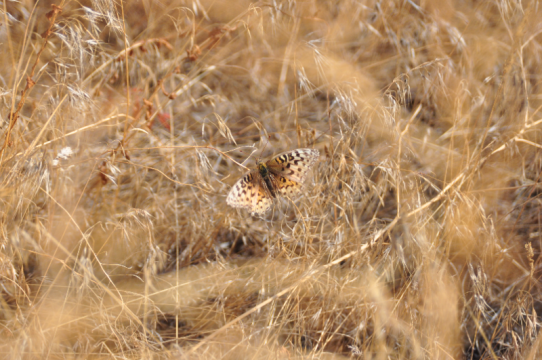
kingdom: Animalia
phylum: Arthropoda
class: Insecta
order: Lepidoptera
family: Nymphalidae
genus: Speyeria
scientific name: Speyeria coronis
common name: Coronis Fritillary
